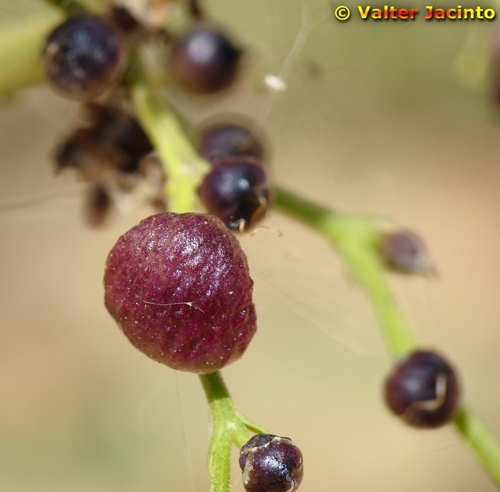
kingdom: Plantae
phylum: Tracheophyta
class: Magnoliopsida
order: Lamiales
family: Scrophulariaceae
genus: Scrophularia
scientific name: Scrophularia canina
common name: French figwort
